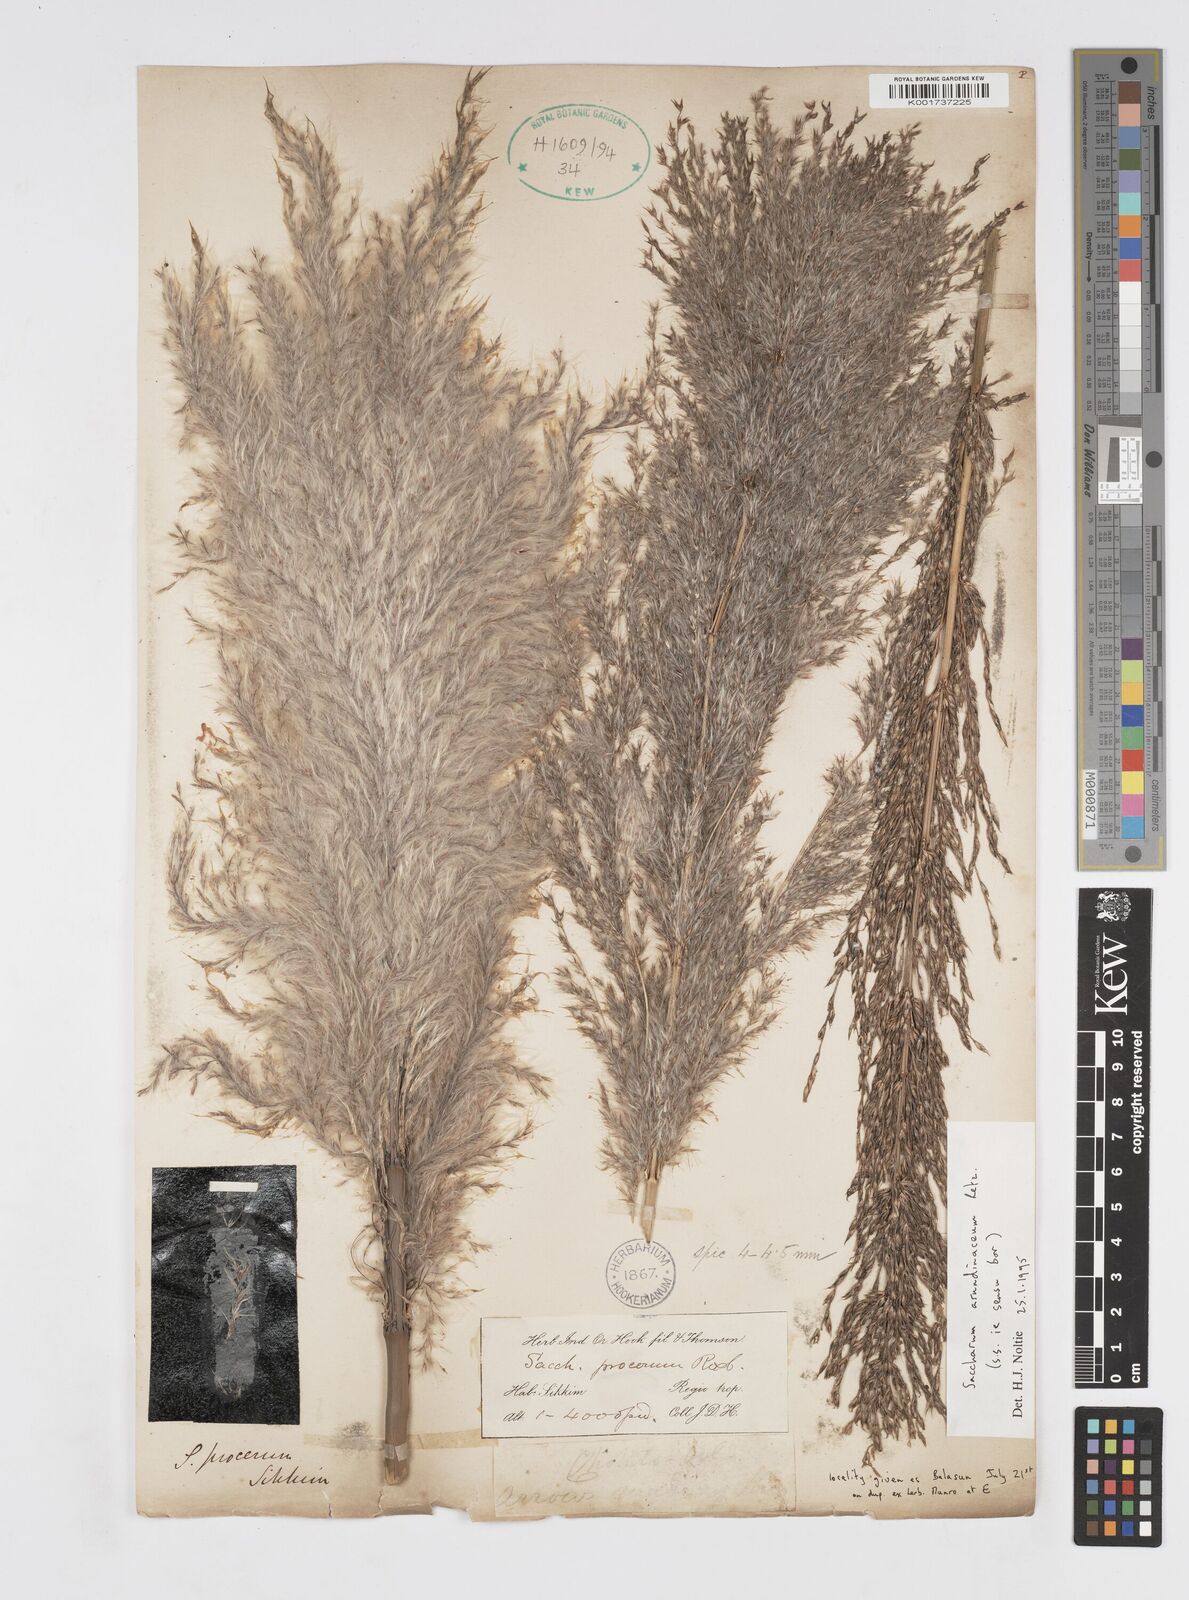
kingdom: Plantae
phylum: Tracheophyta
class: Liliopsida
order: Poales
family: Poaceae
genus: Tripidium
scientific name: Tripidium arundinaceum
